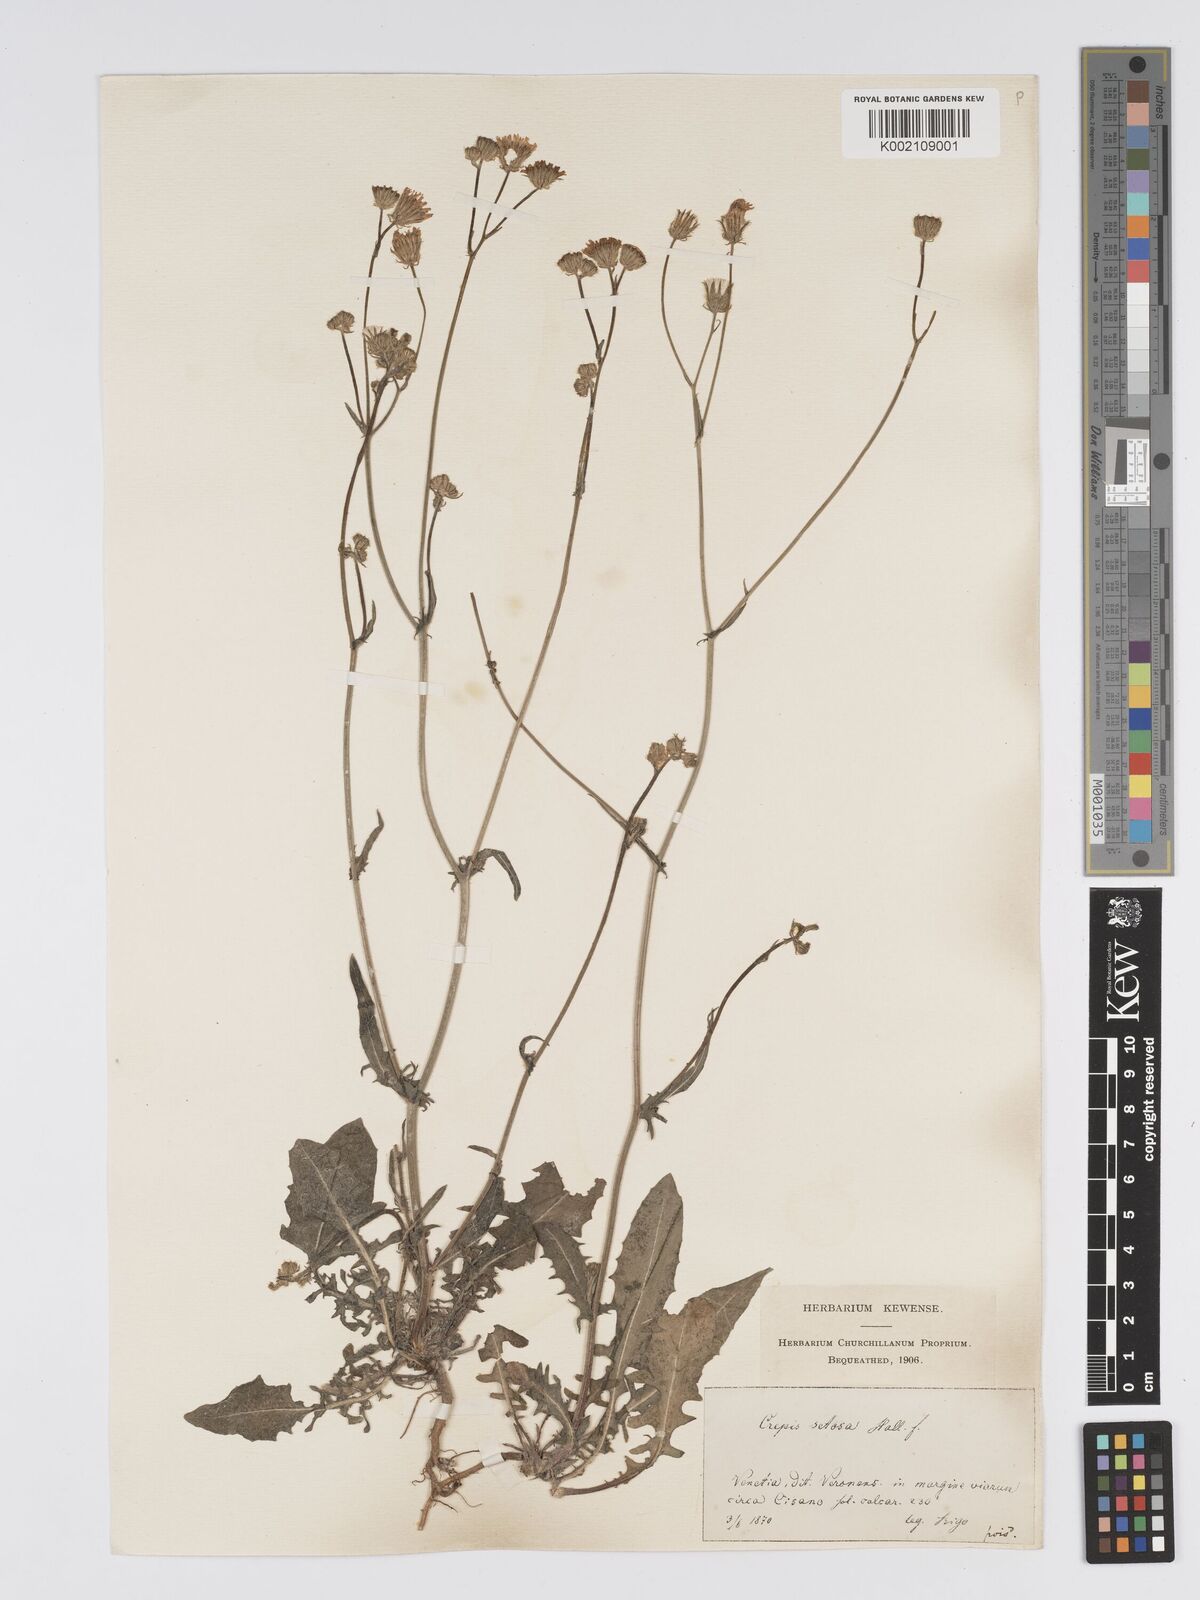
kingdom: Plantae
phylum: Tracheophyta
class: Magnoliopsida
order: Asterales
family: Asteraceae
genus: Crepis
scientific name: Crepis setosa
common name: Bristly hawk's-beard
